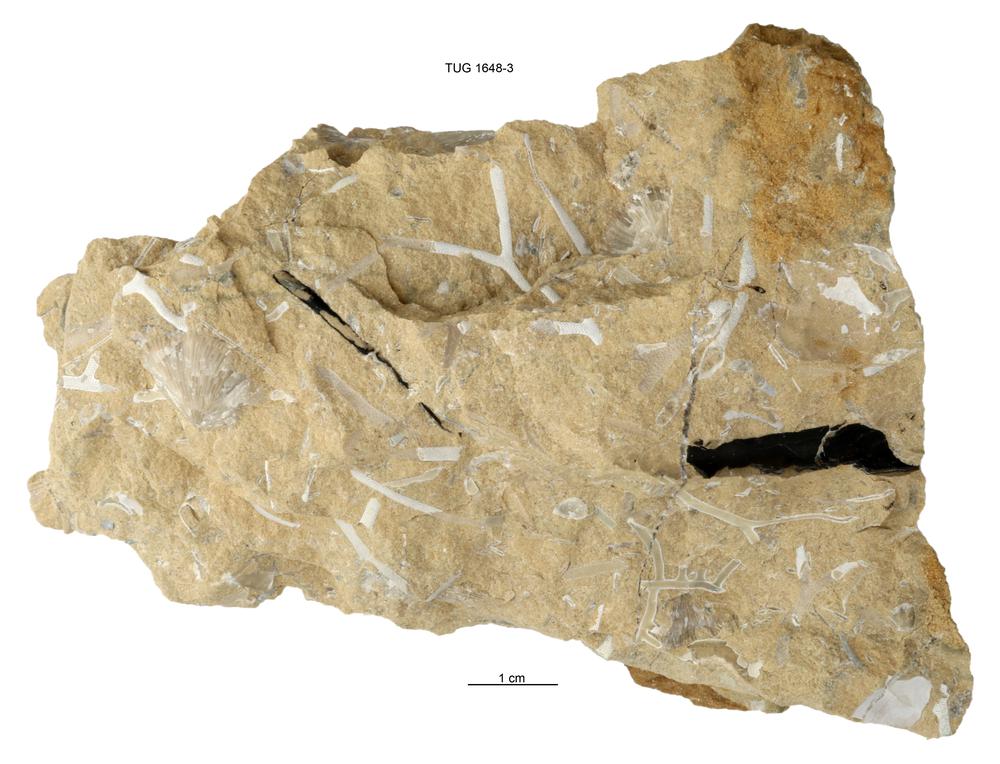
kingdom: Animalia
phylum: Cnidaria
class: Scyphozoa
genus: Sphenothallus
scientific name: Sphenothallus
